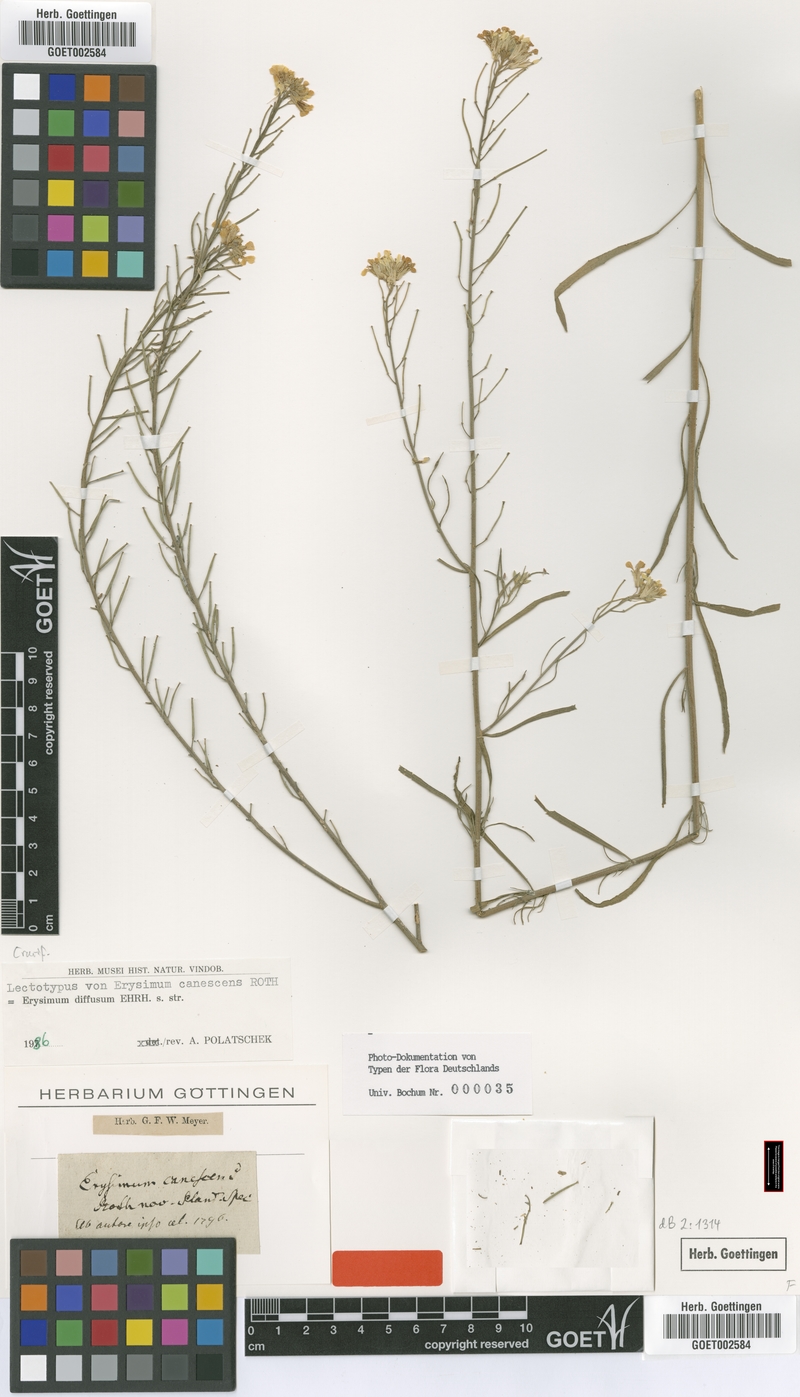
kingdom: Plantae
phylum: Tracheophyta
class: Magnoliopsida
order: Brassicales
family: Brassicaceae
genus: Erysimum
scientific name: Erysimum diffusum
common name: Diffuse wallflower
